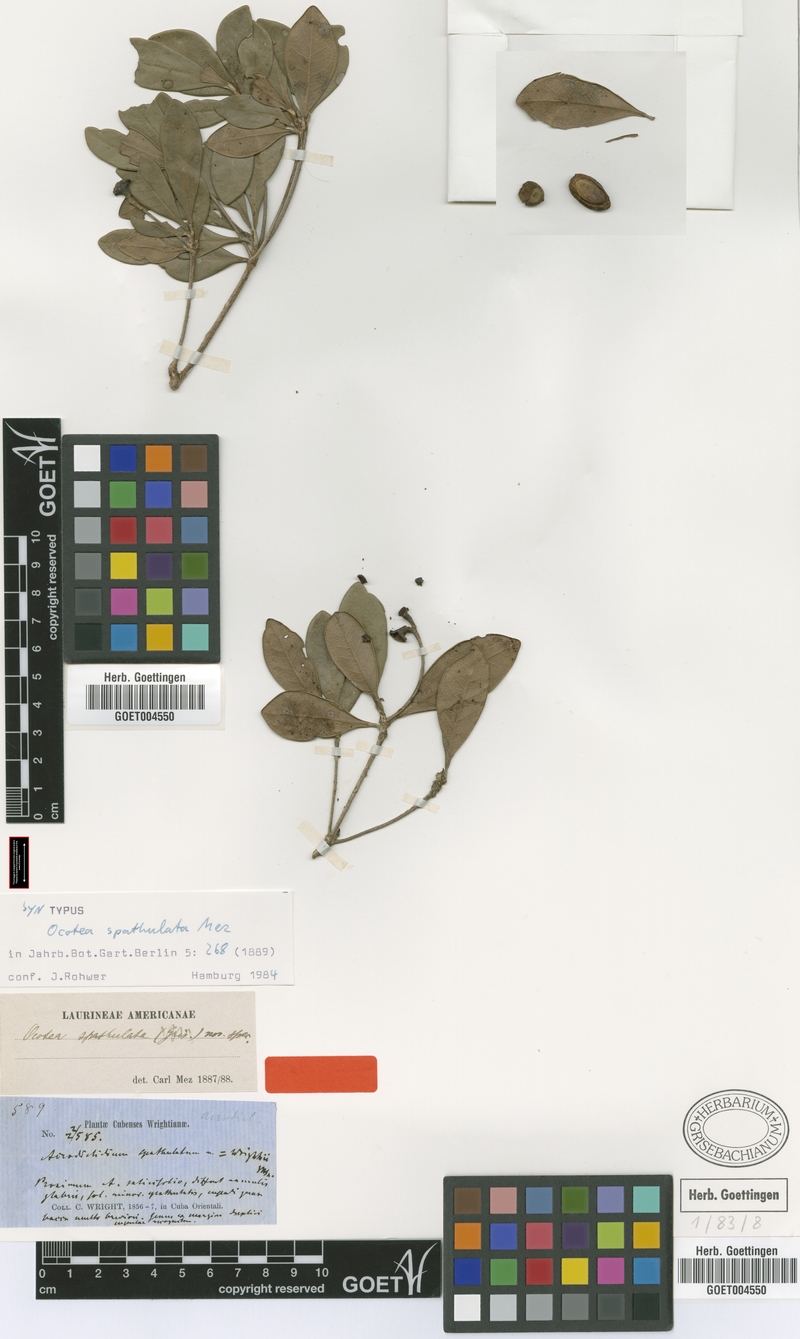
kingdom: Plantae
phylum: Tracheophyta
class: Magnoliopsida
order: Laurales
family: Lauraceae
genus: Ocotea
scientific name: Ocotea spathulata
